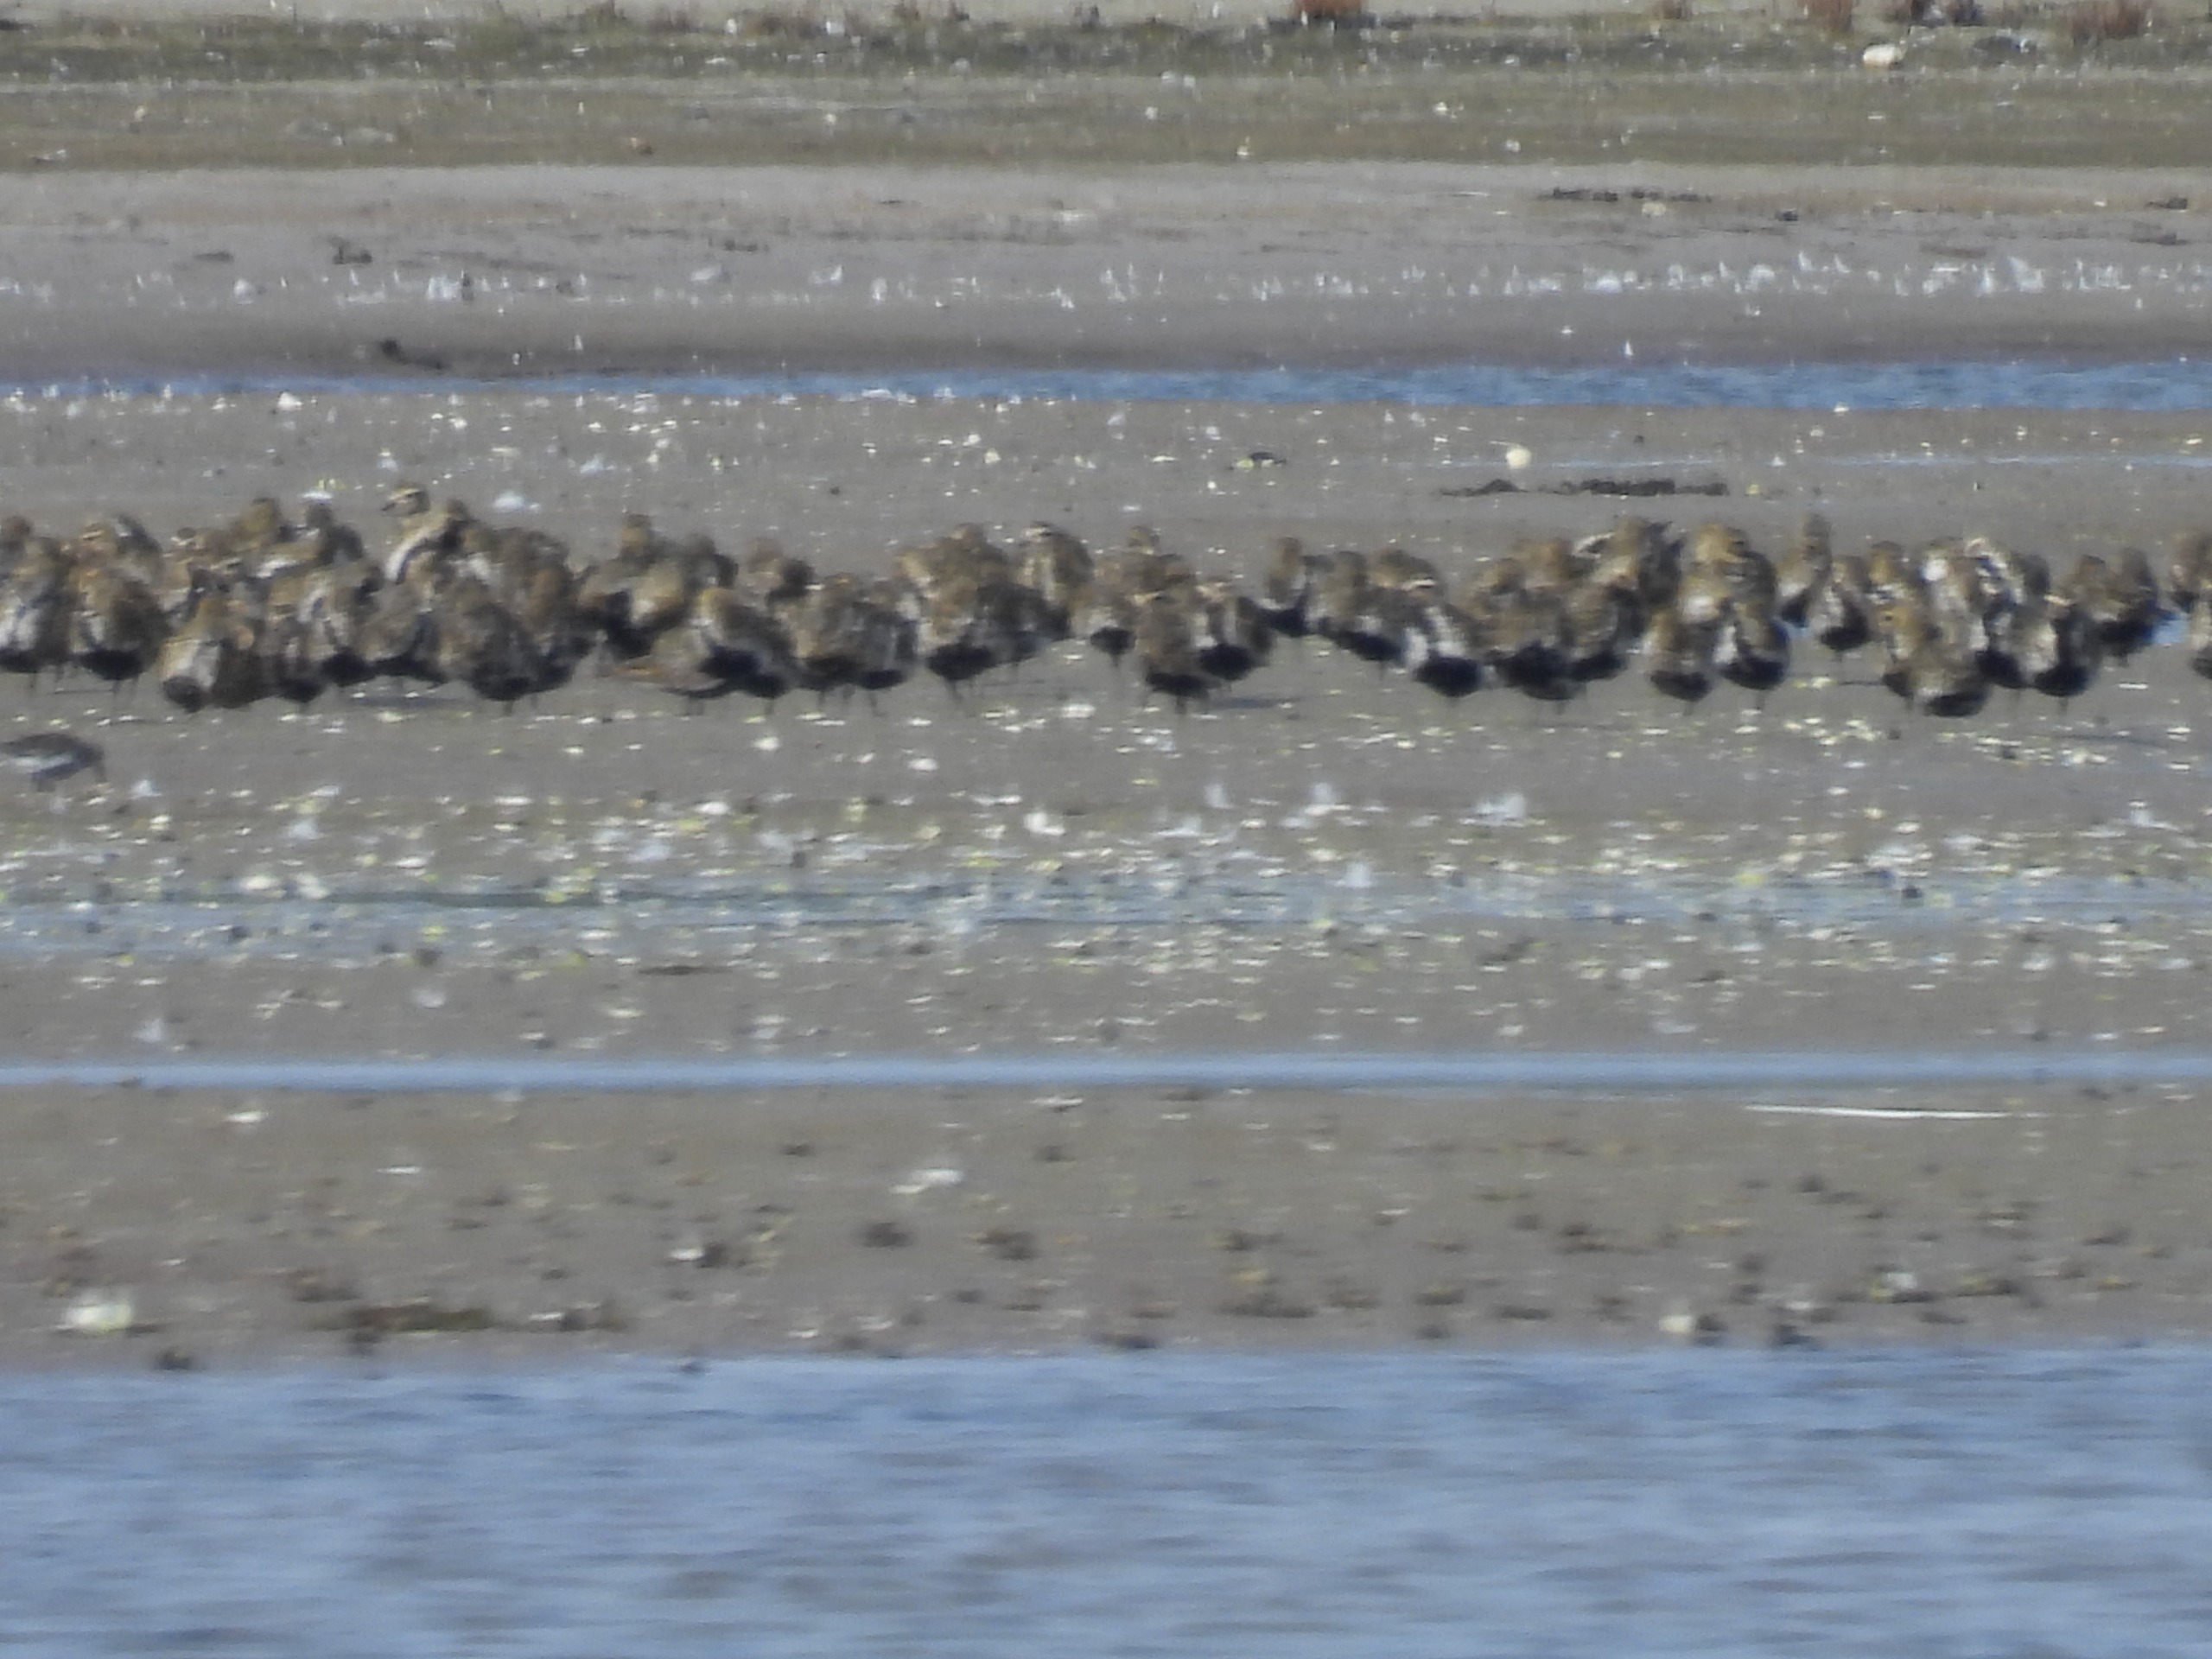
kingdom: Animalia
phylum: Chordata
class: Aves
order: Charadriiformes
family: Charadriidae
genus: Pluvialis
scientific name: Pluvialis apricaria
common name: Hjejle
